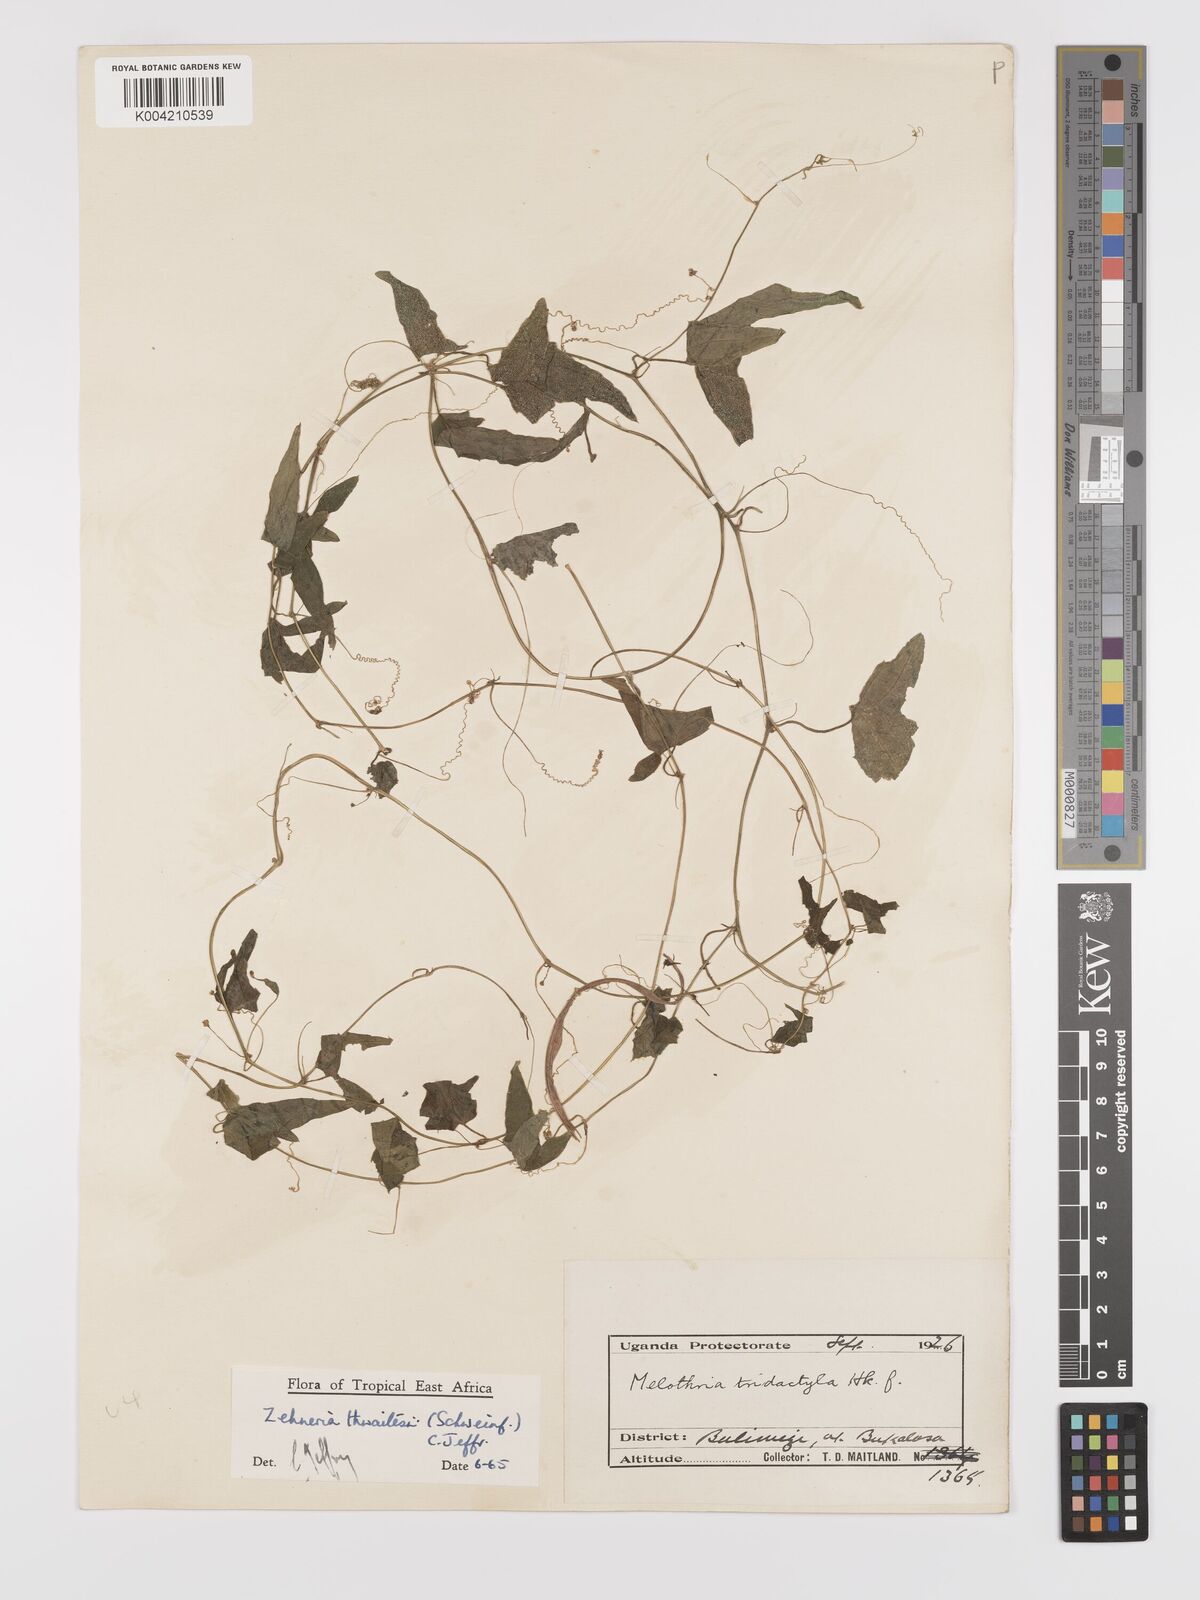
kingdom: Plantae
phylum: Tracheophyta
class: Magnoliopsida
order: Cucurbitales
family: Cucurbitaceae
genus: Zehneria
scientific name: Zehneria thwaitesii
